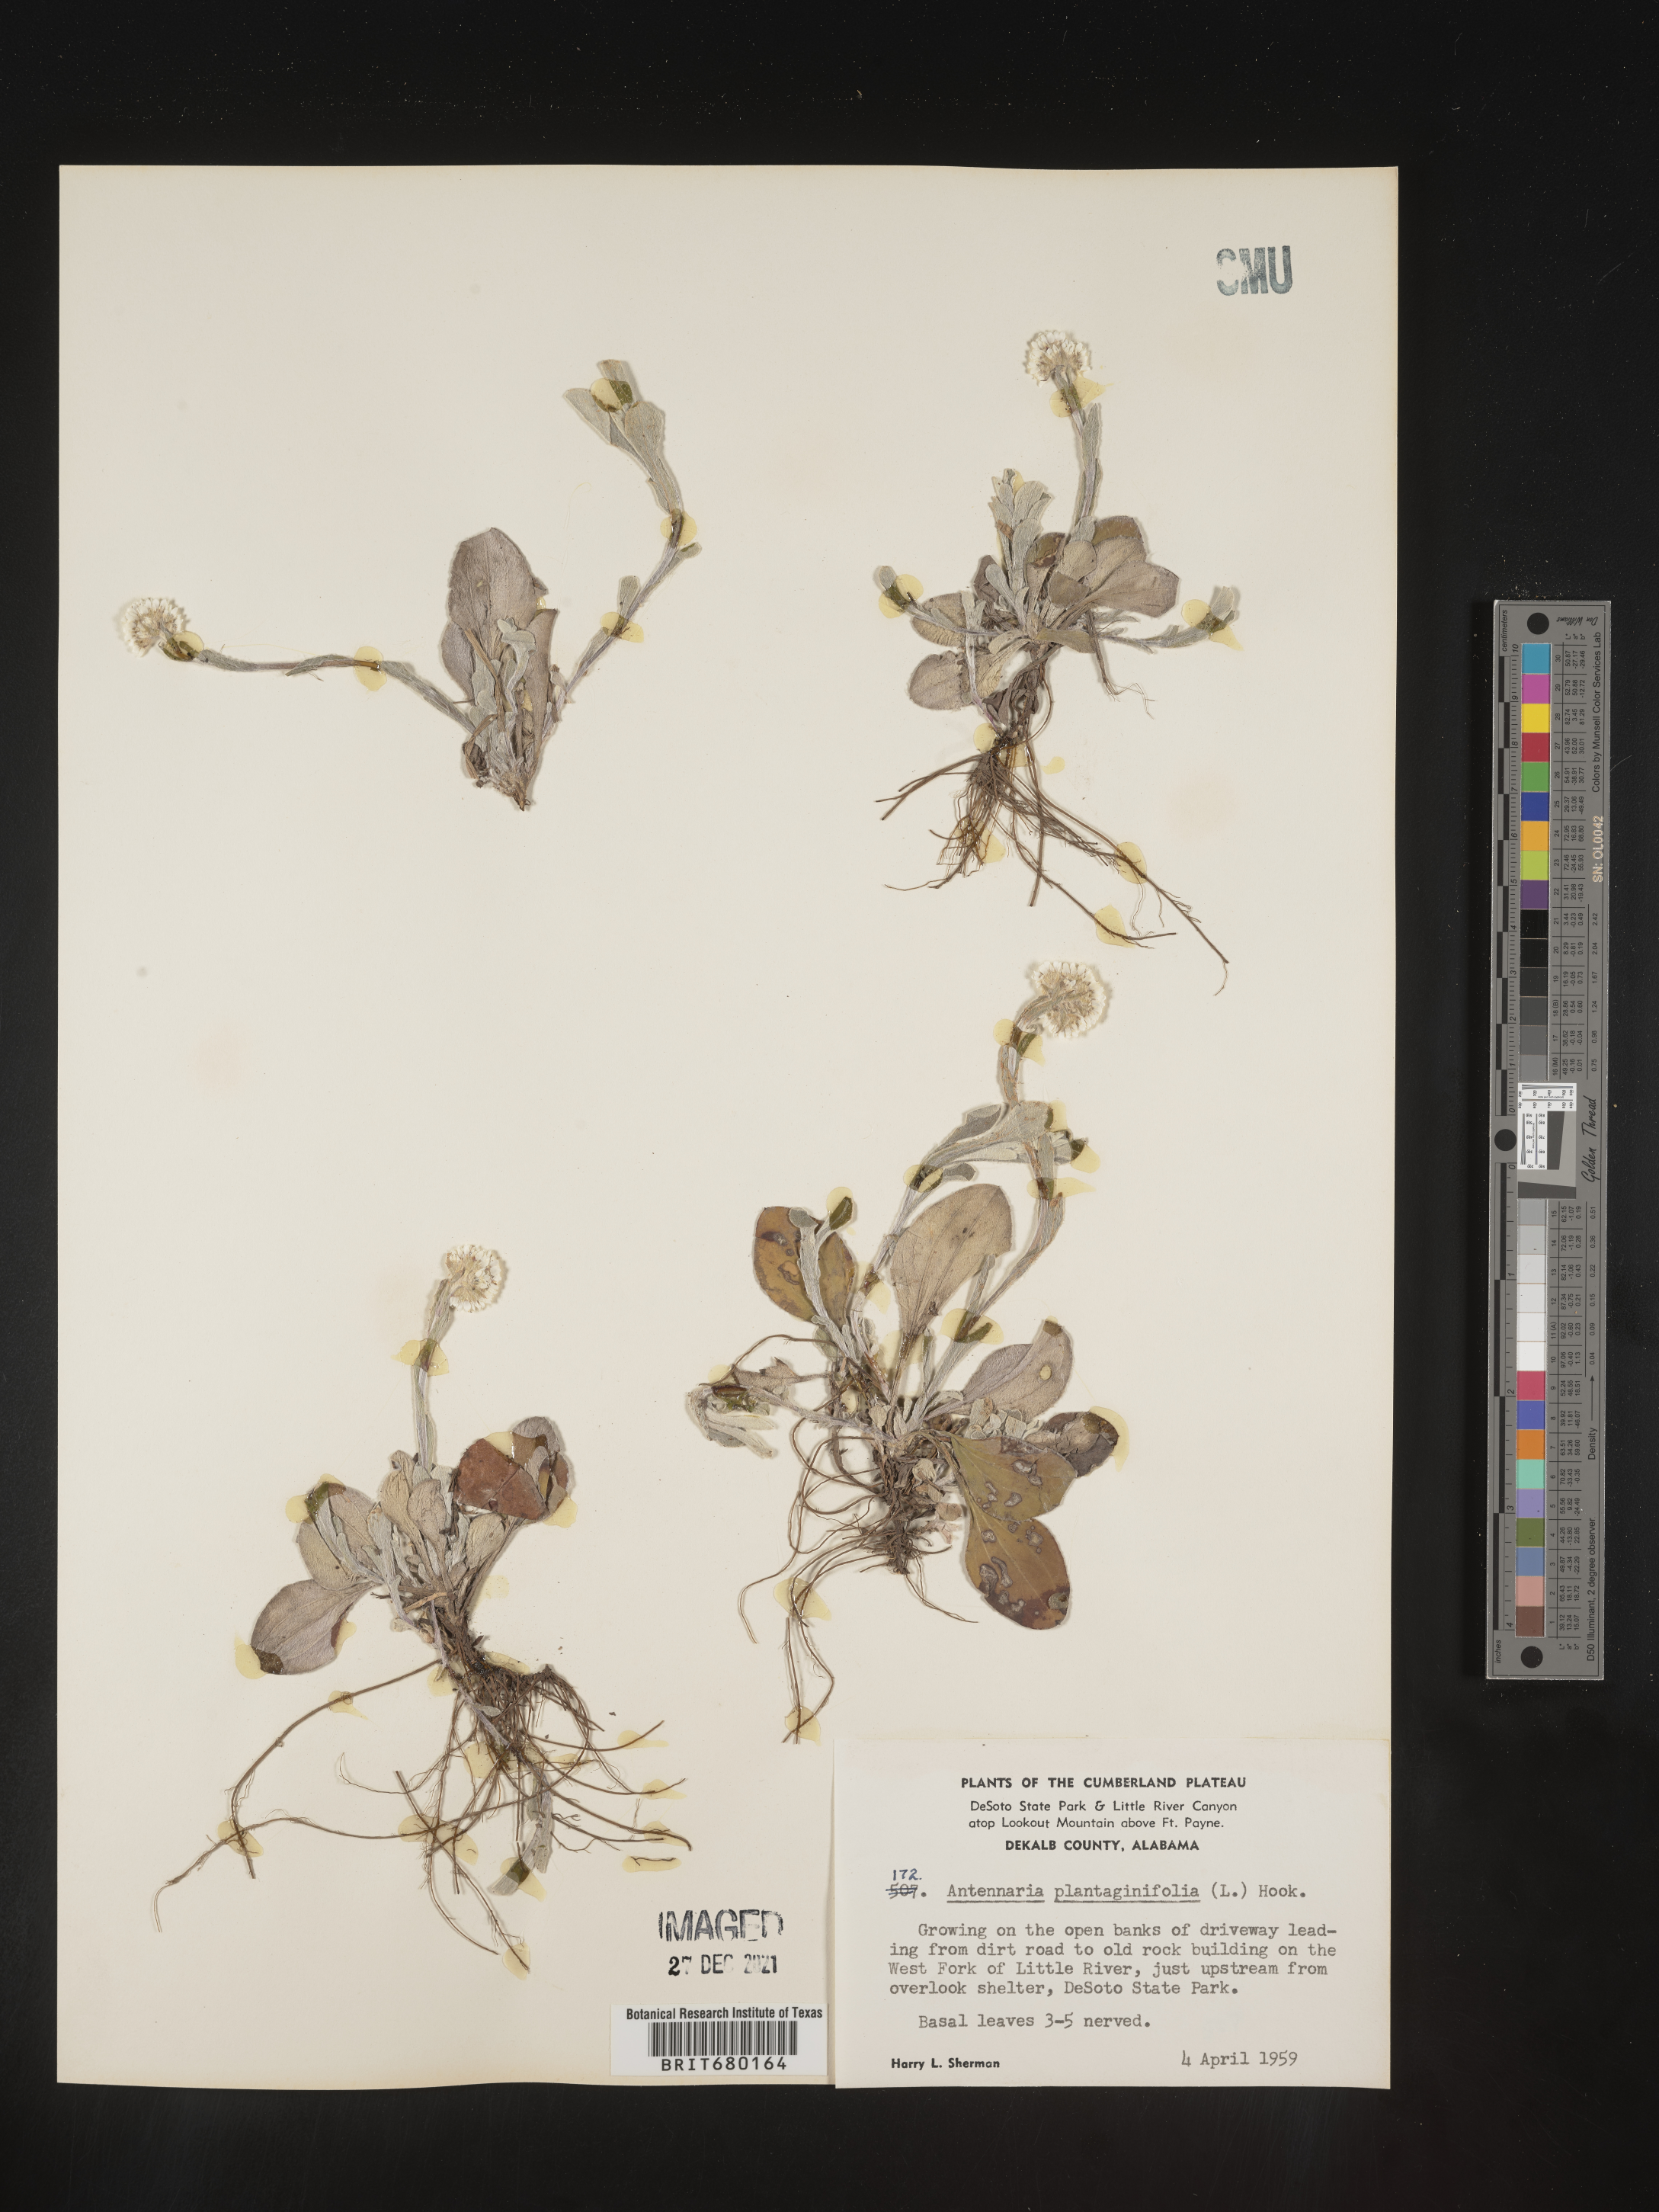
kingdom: Plantae
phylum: Tracheophyta
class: Magnoliopsida
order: Asterales
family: Asteraceae
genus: Antennaria
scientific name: Antennaria plantaginifolia
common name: Plantain-leaved pussytoes
